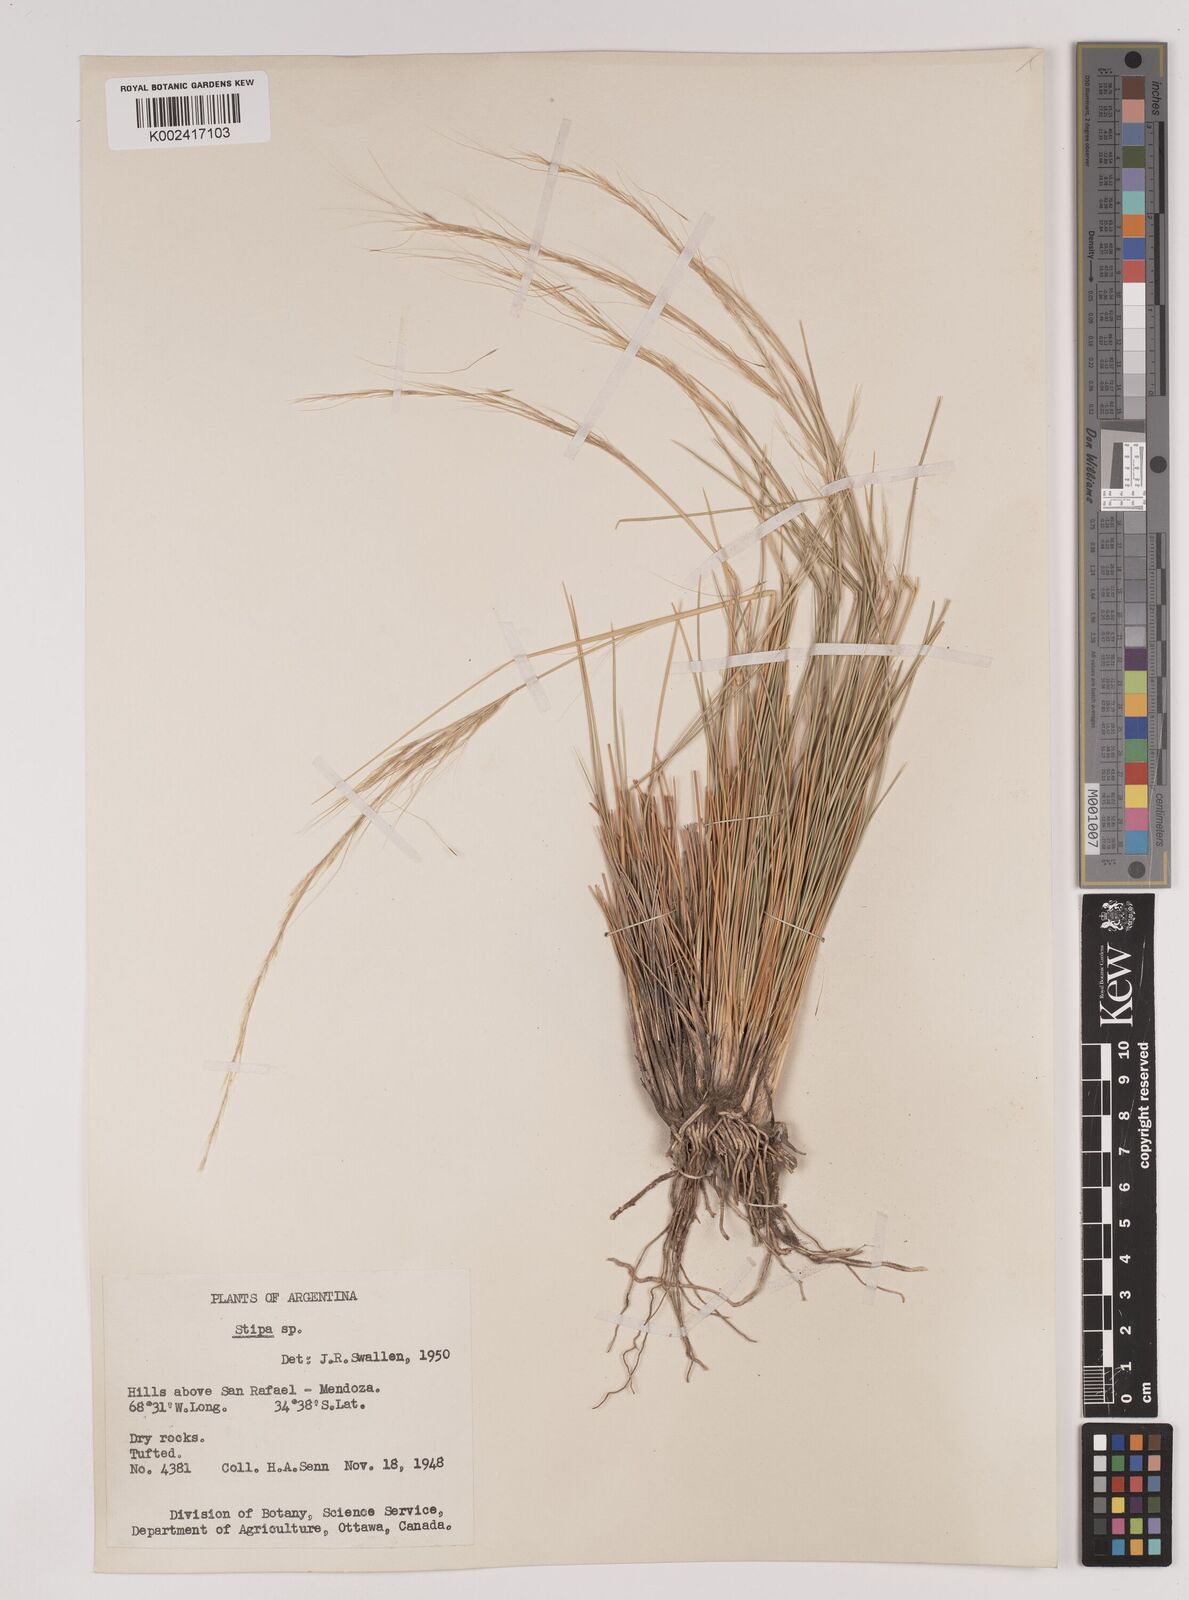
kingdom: Plantae
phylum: Tracheophyta
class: Liliopsida
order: Poales
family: Poaceae
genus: Stipa
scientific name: Stipa
